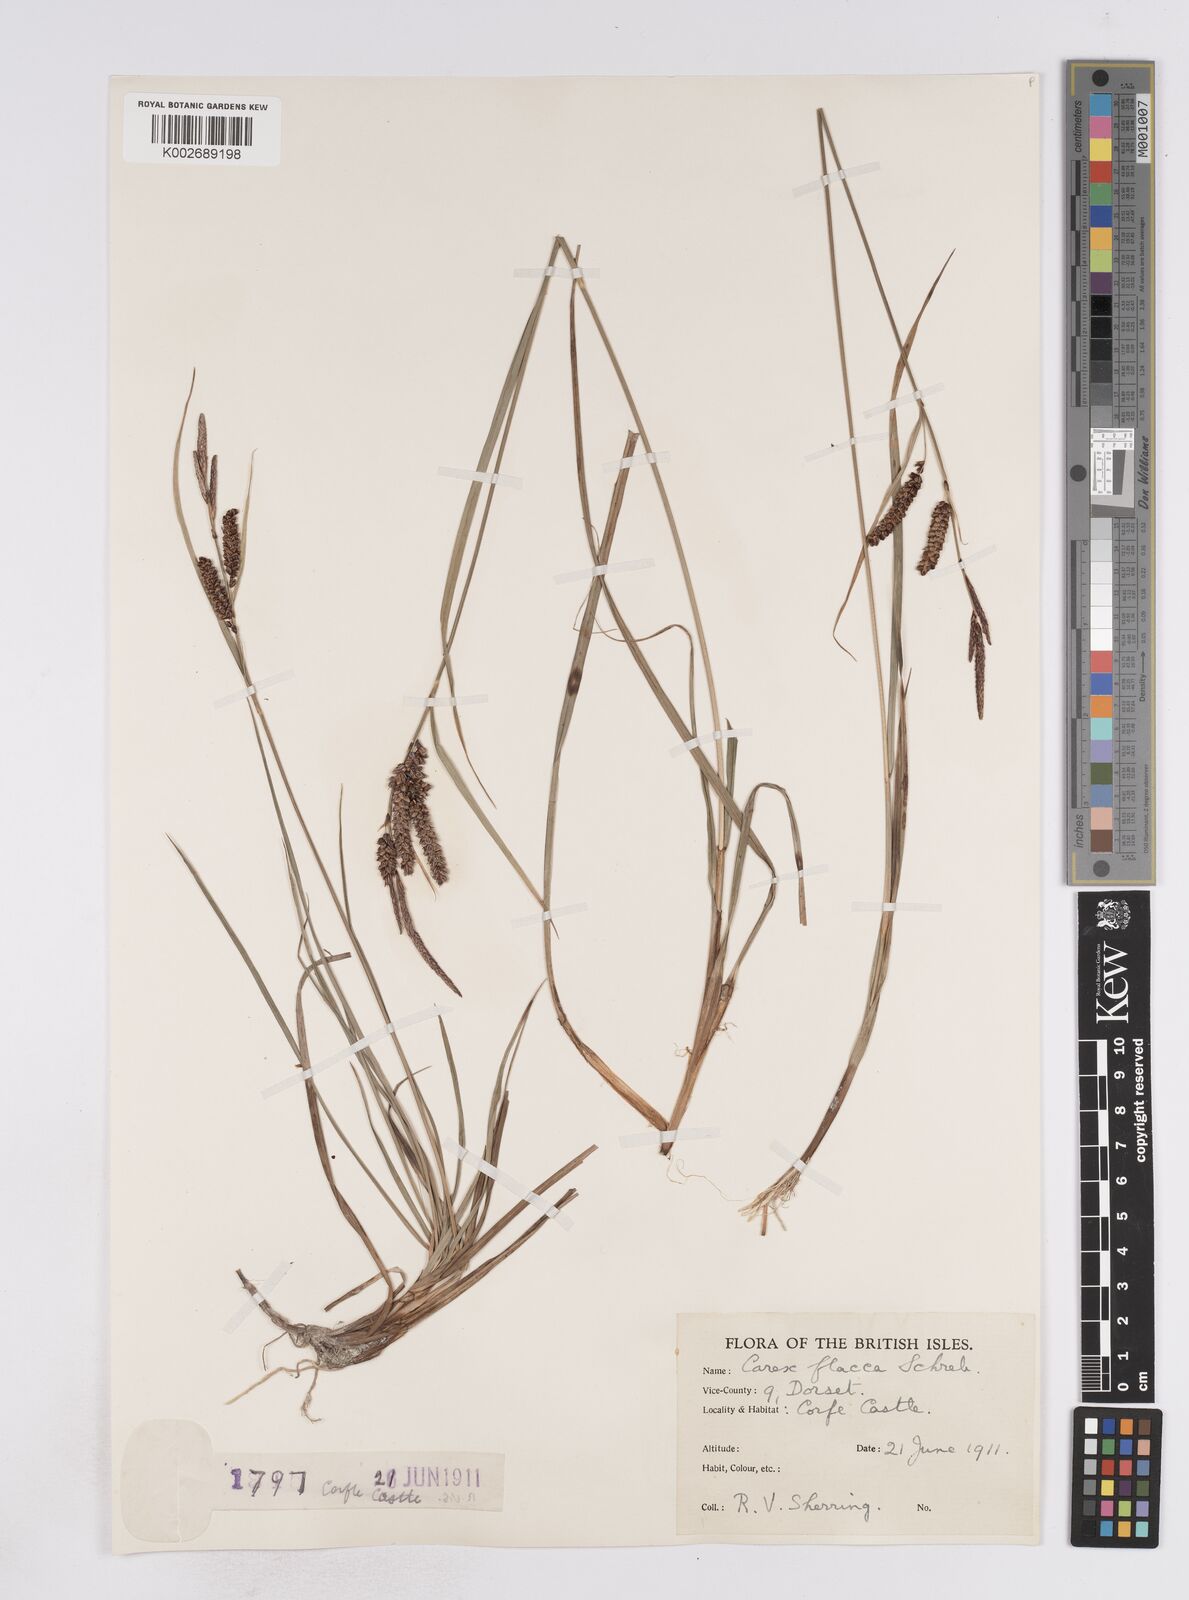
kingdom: Plantae
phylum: Tracheophyta
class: Liliopsida
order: Poales
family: Cyperaceae
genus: Carex
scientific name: Carex flacca
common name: Glaucous sedge
